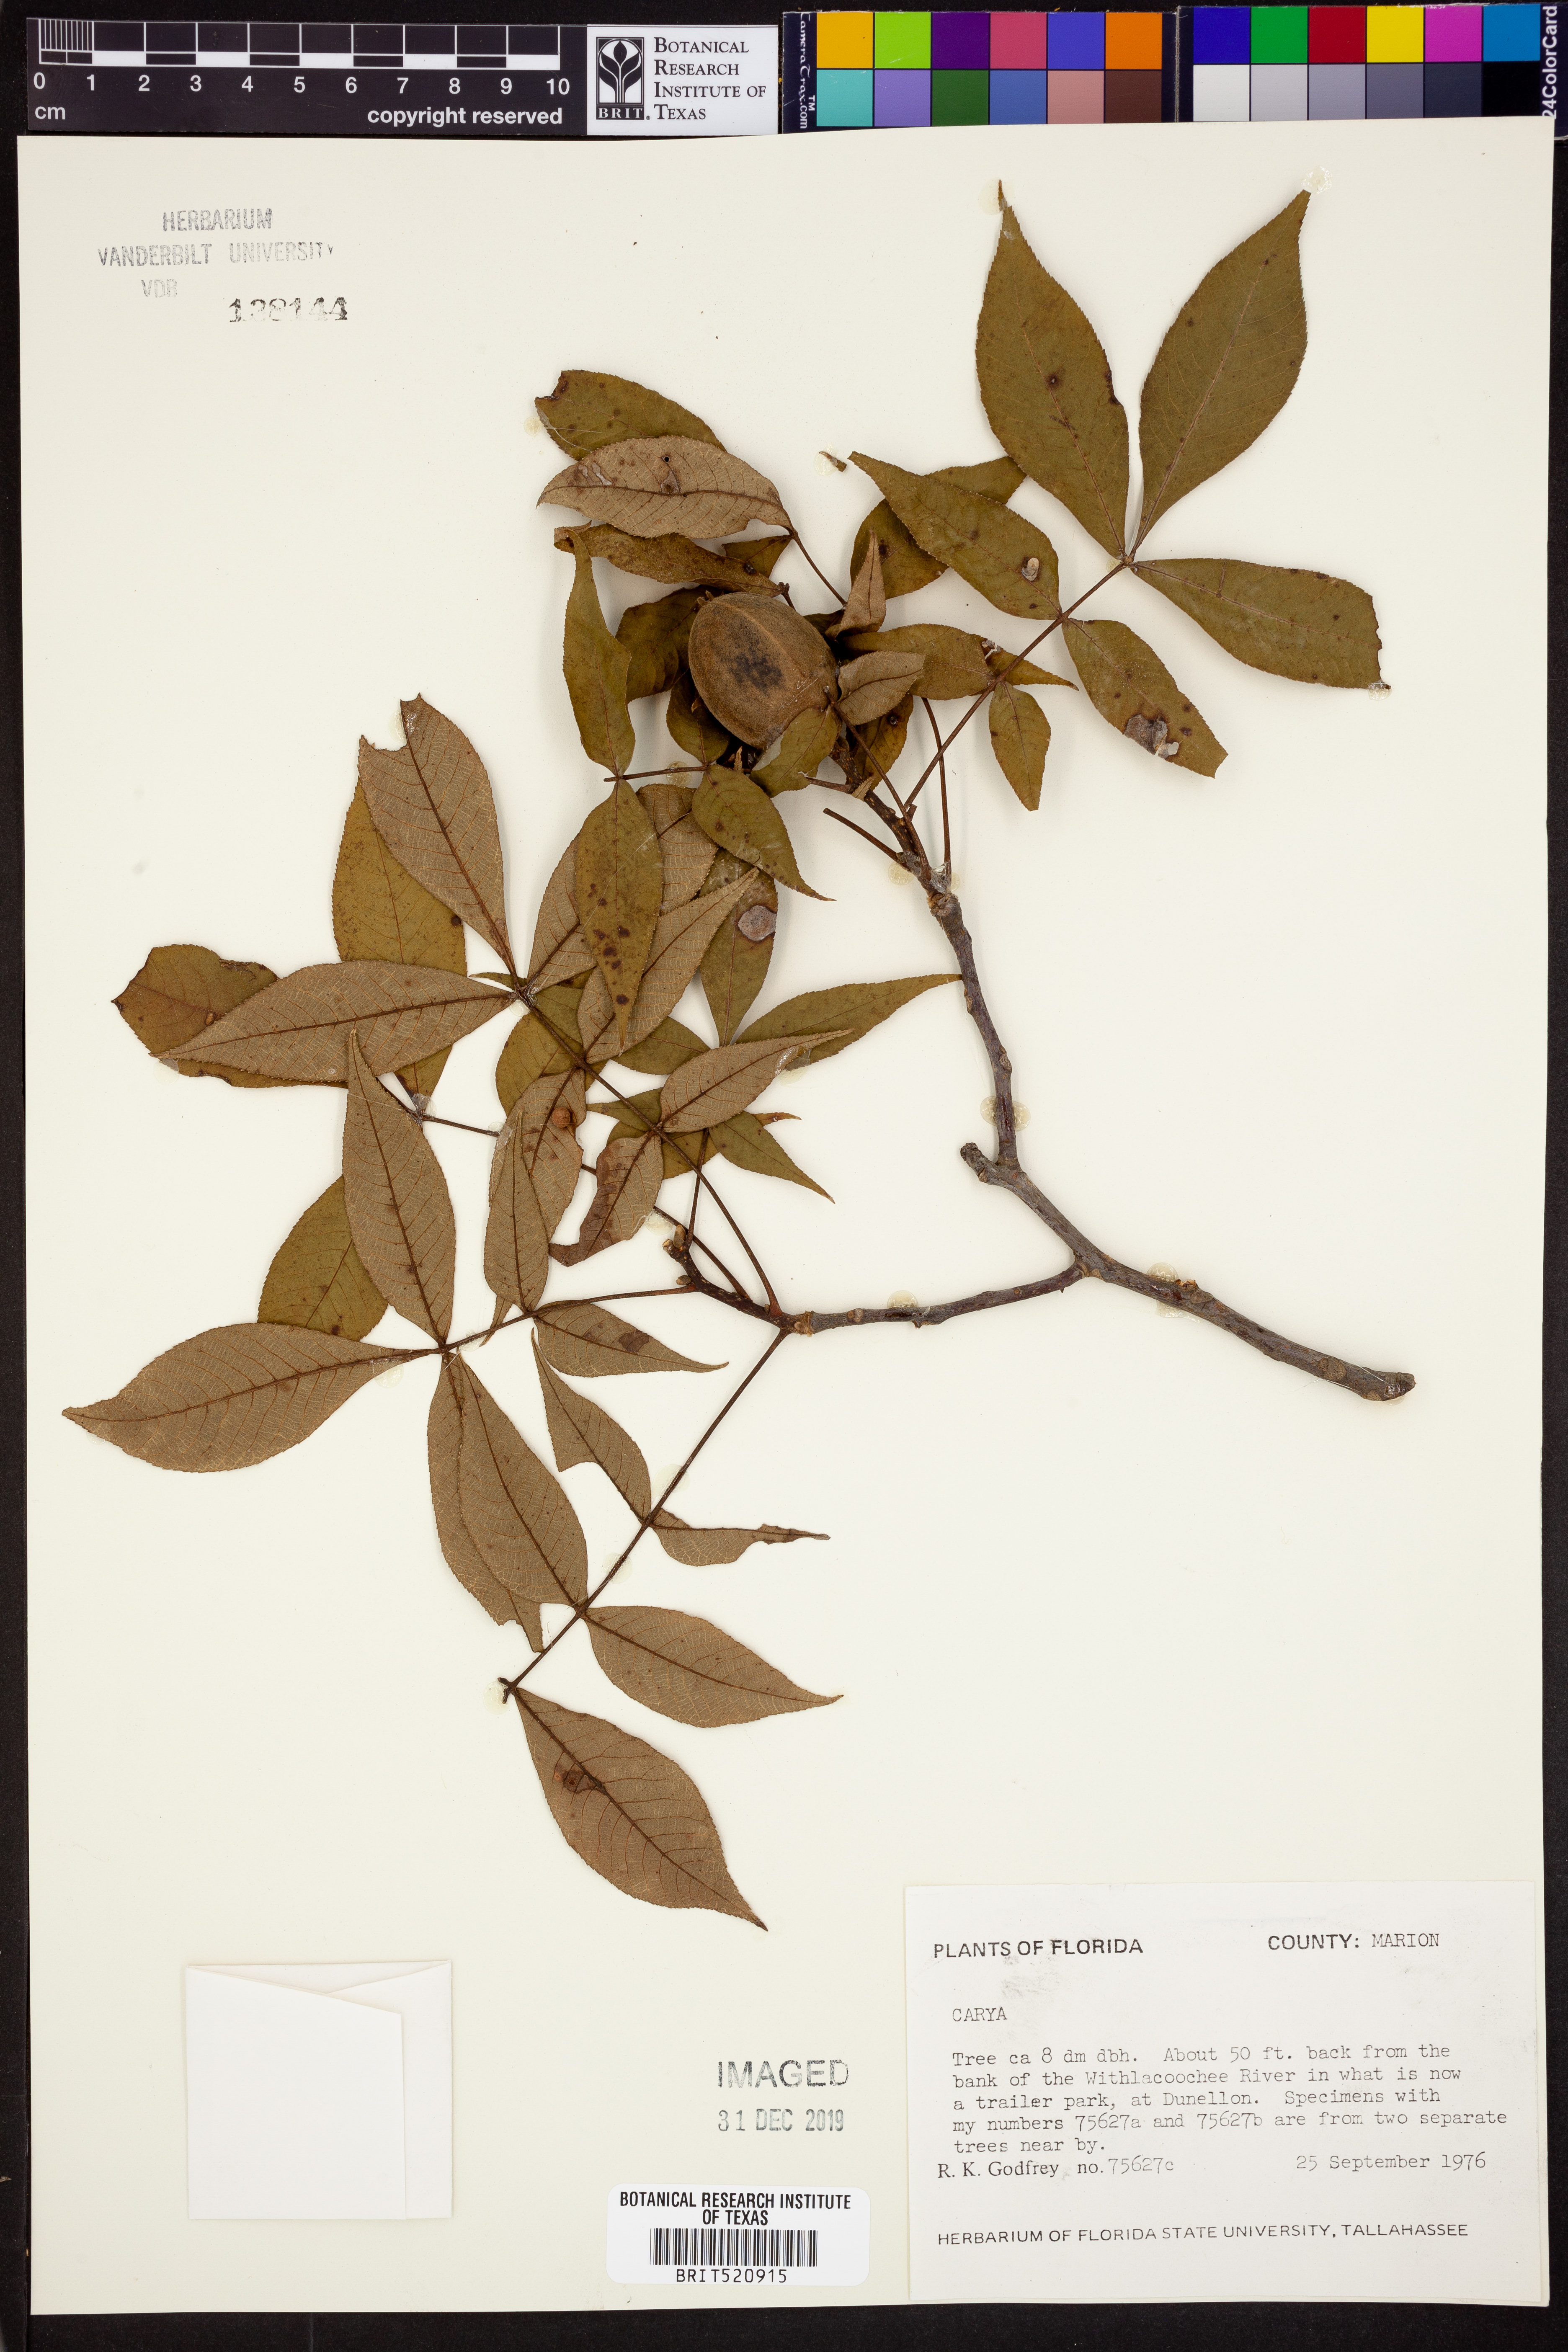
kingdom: Plantae
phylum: Tracheophyta
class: Magnoliopsida
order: Fagales
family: Juglandaceae
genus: Carya
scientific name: Carya
